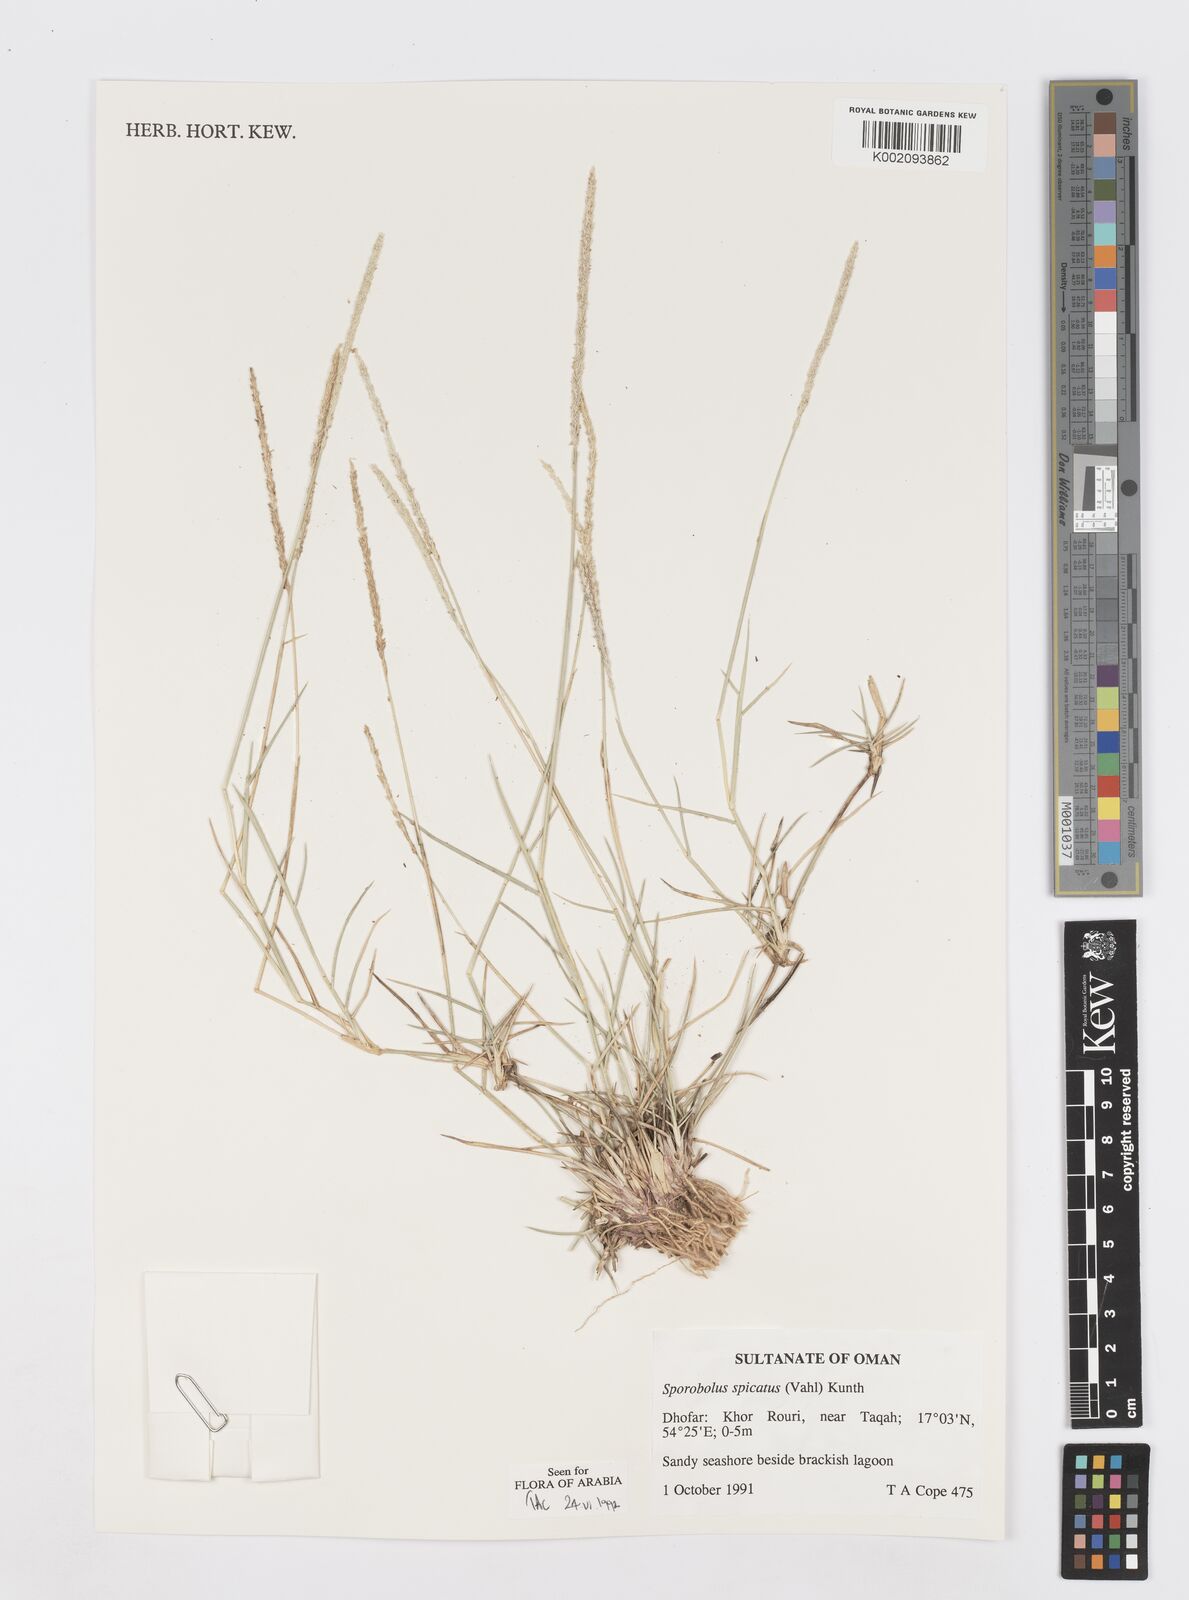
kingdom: Plantae
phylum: Tracheophyta
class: Liliopsida
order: Poales
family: Poaceae
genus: Sporobolus
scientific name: Sporobolus spicatus
